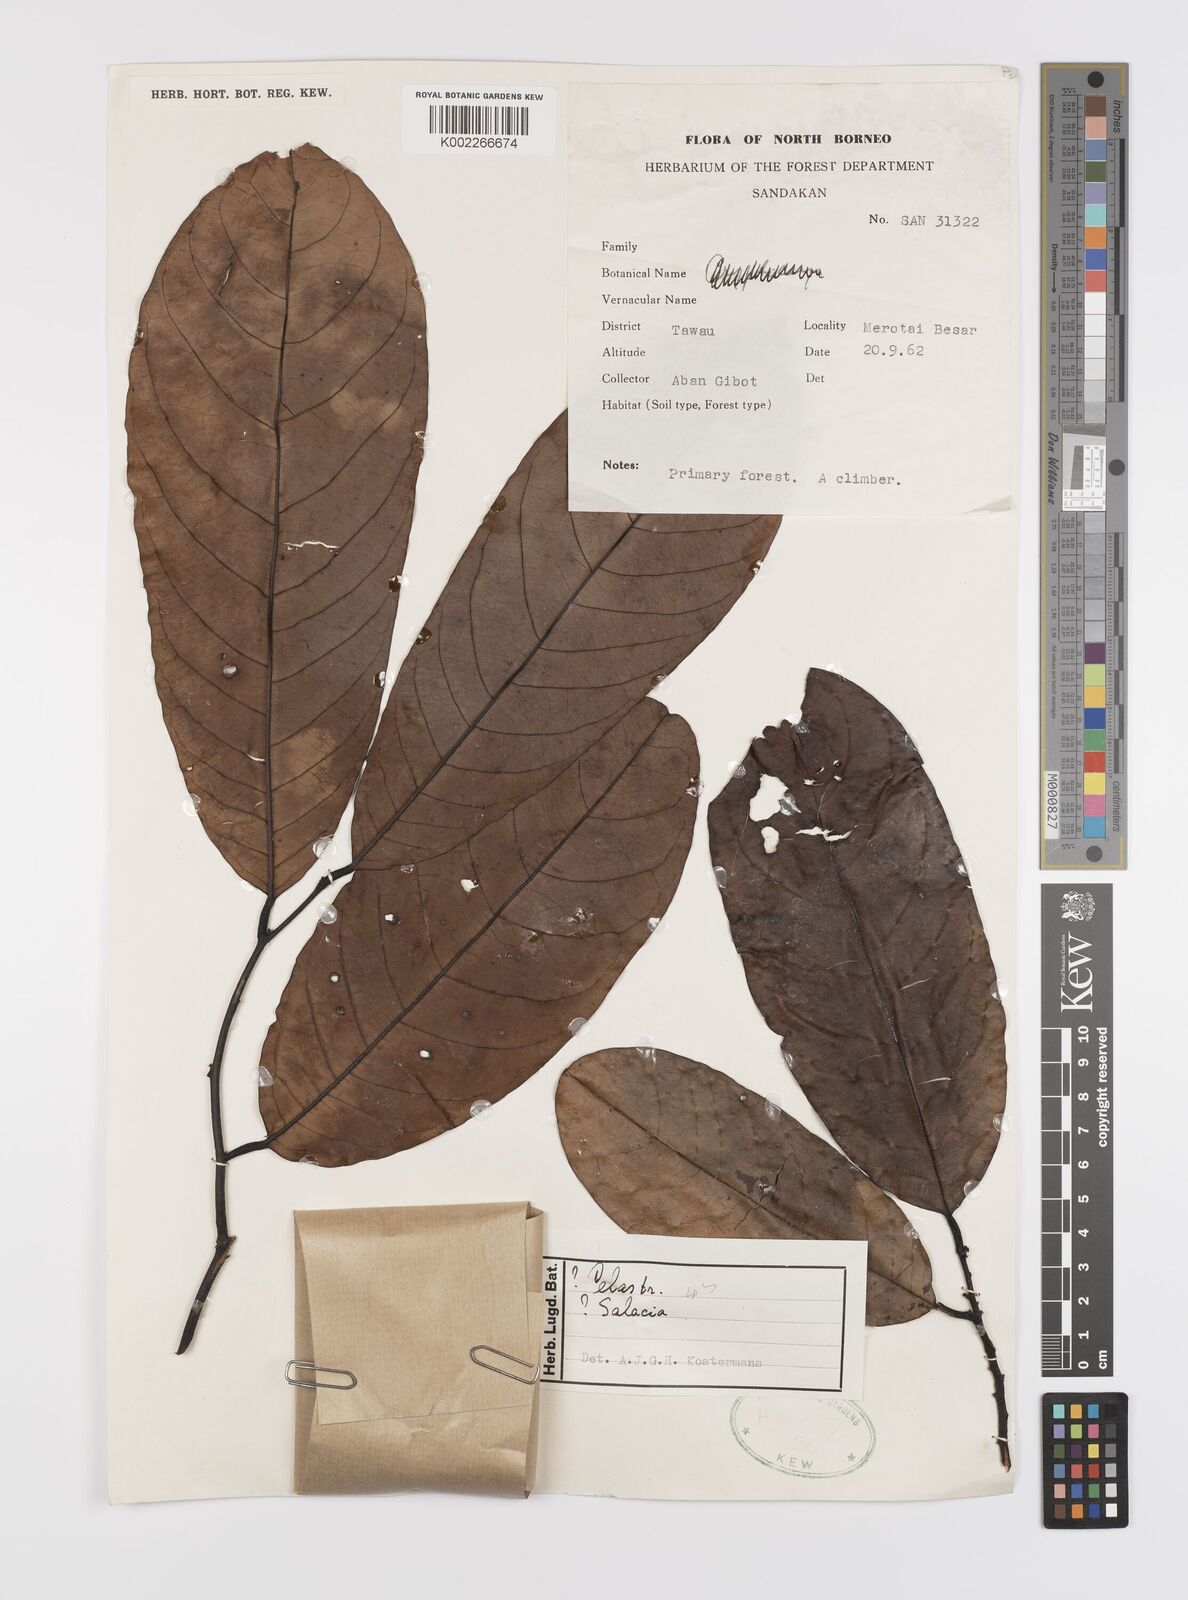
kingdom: Plantae
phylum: Tracheophyta
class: Magnoliopsida
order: Celastrales
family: Celastraceae
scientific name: Celastraceae
